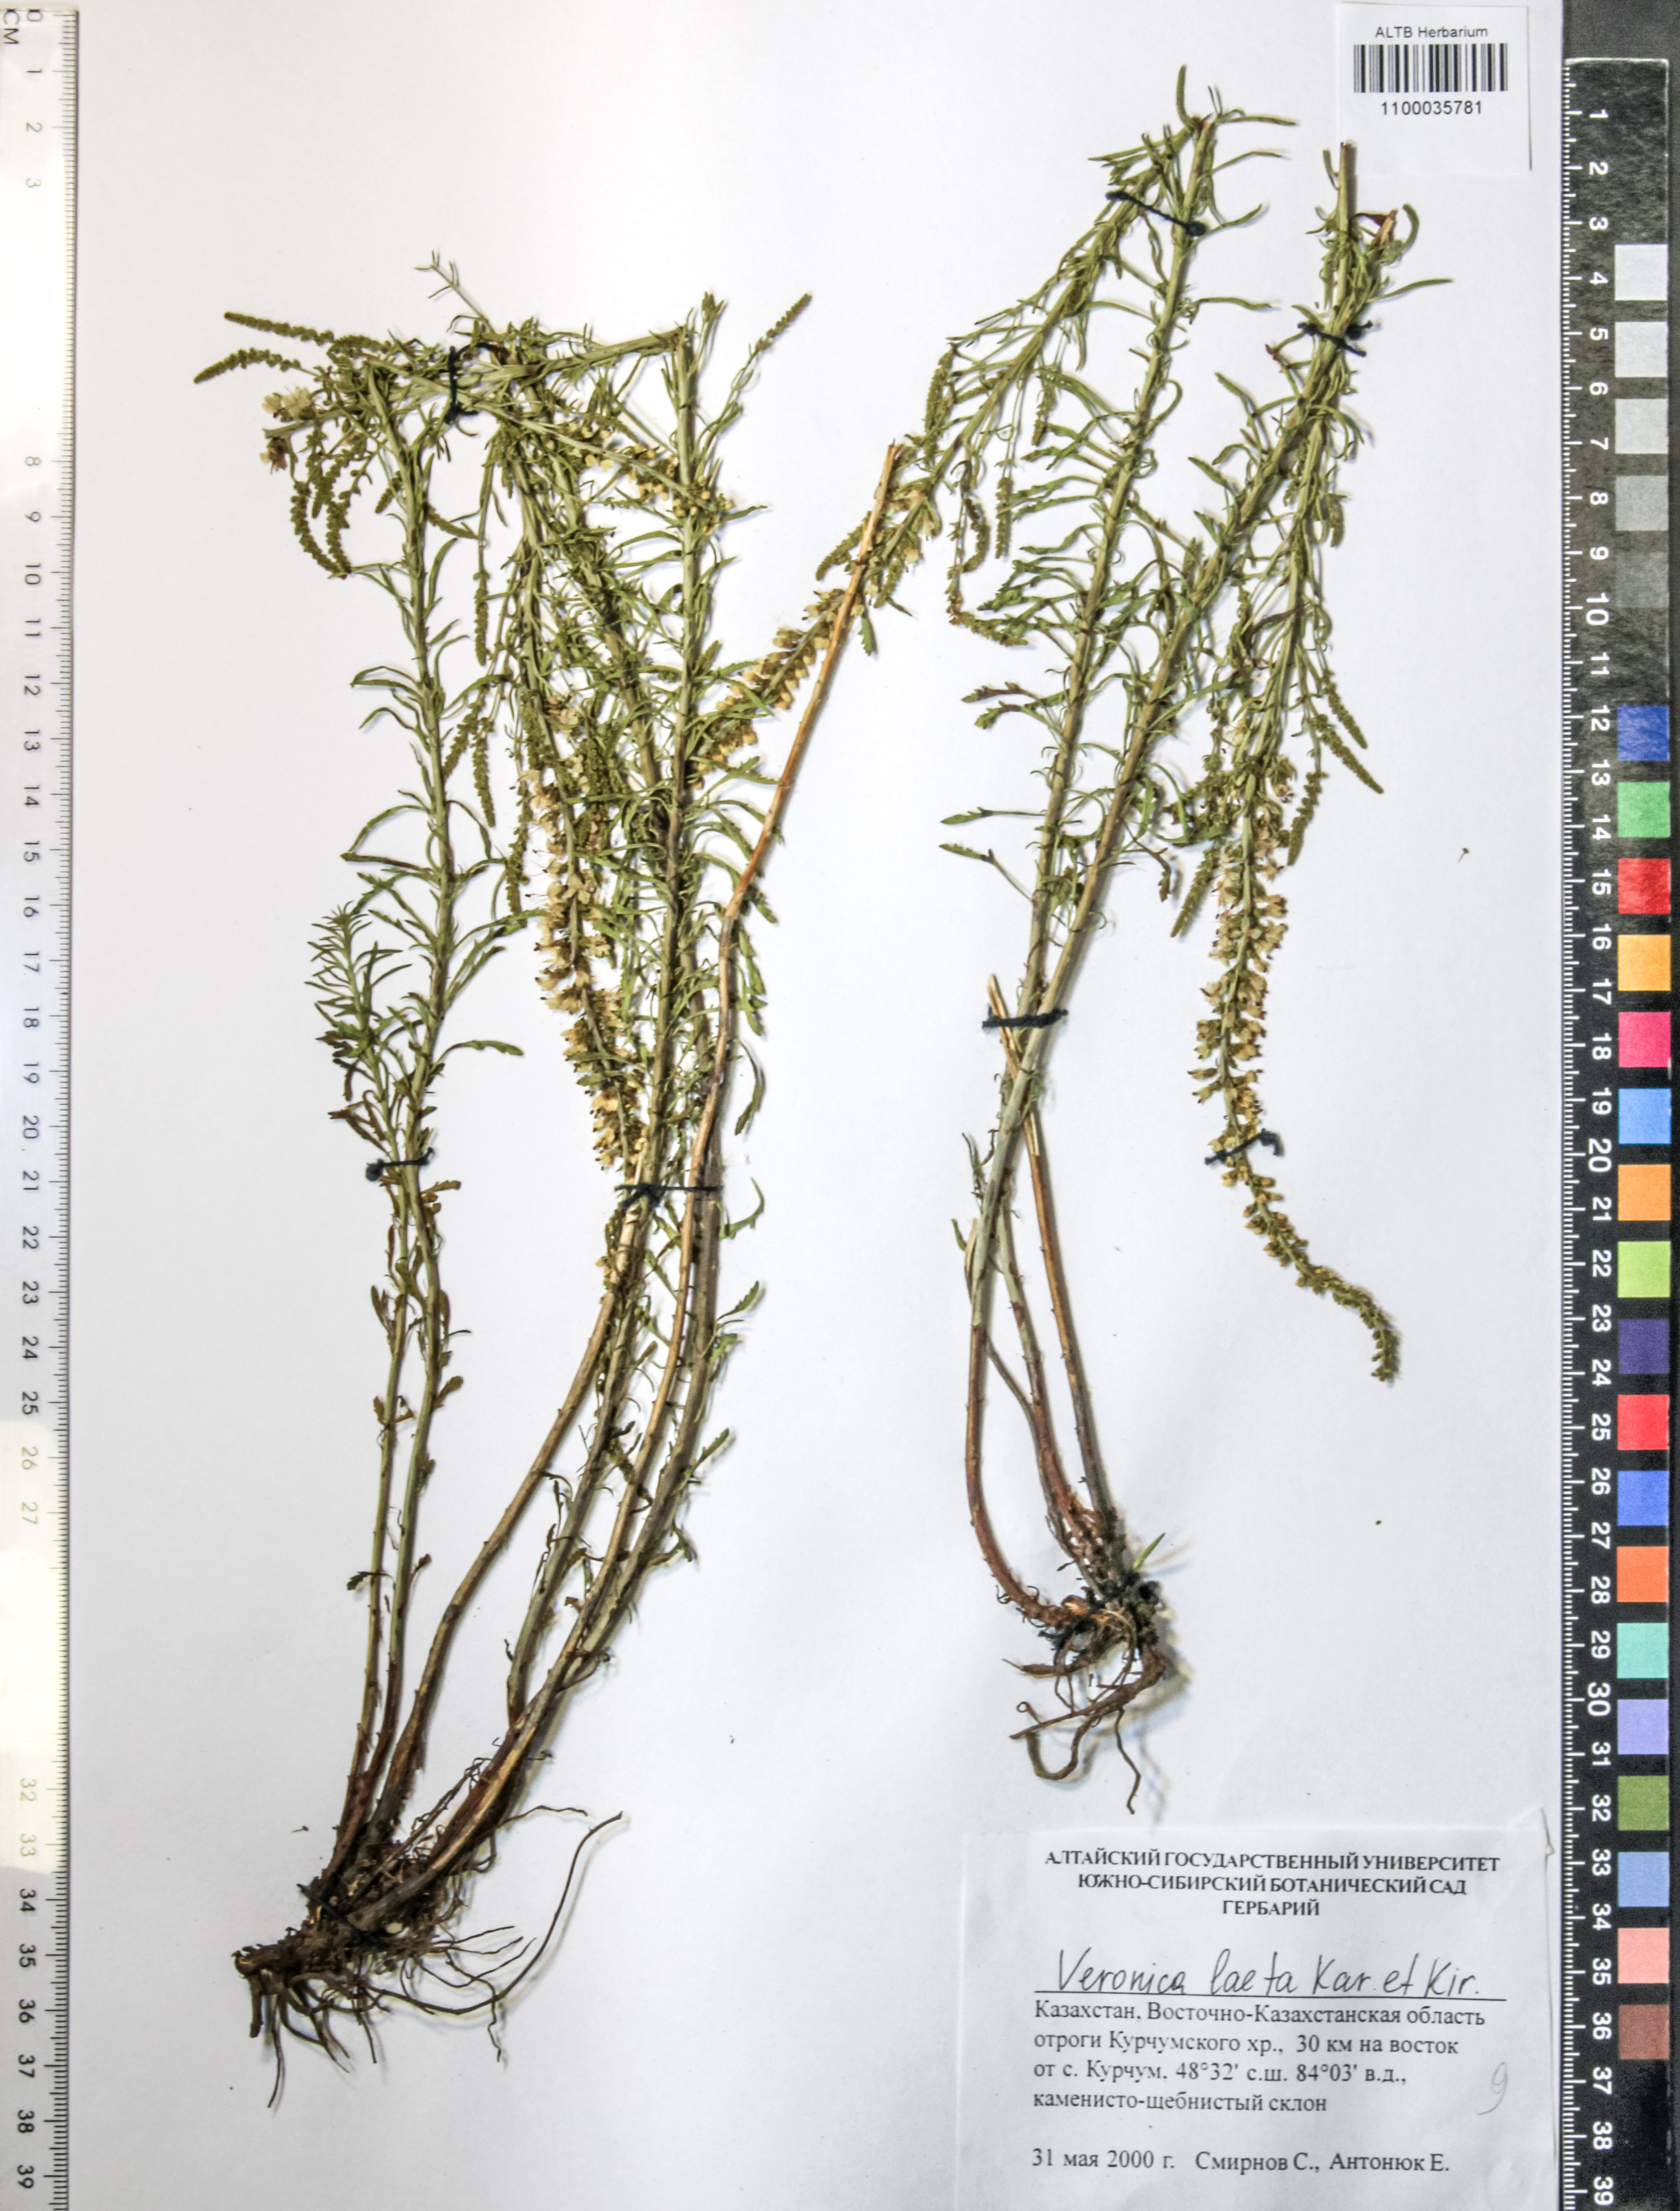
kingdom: Plantae
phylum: Tracheophyta
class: Magnoliopsida
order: Lamiales
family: Plantaginaceae
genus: Veronica
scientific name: Veronica laeta
